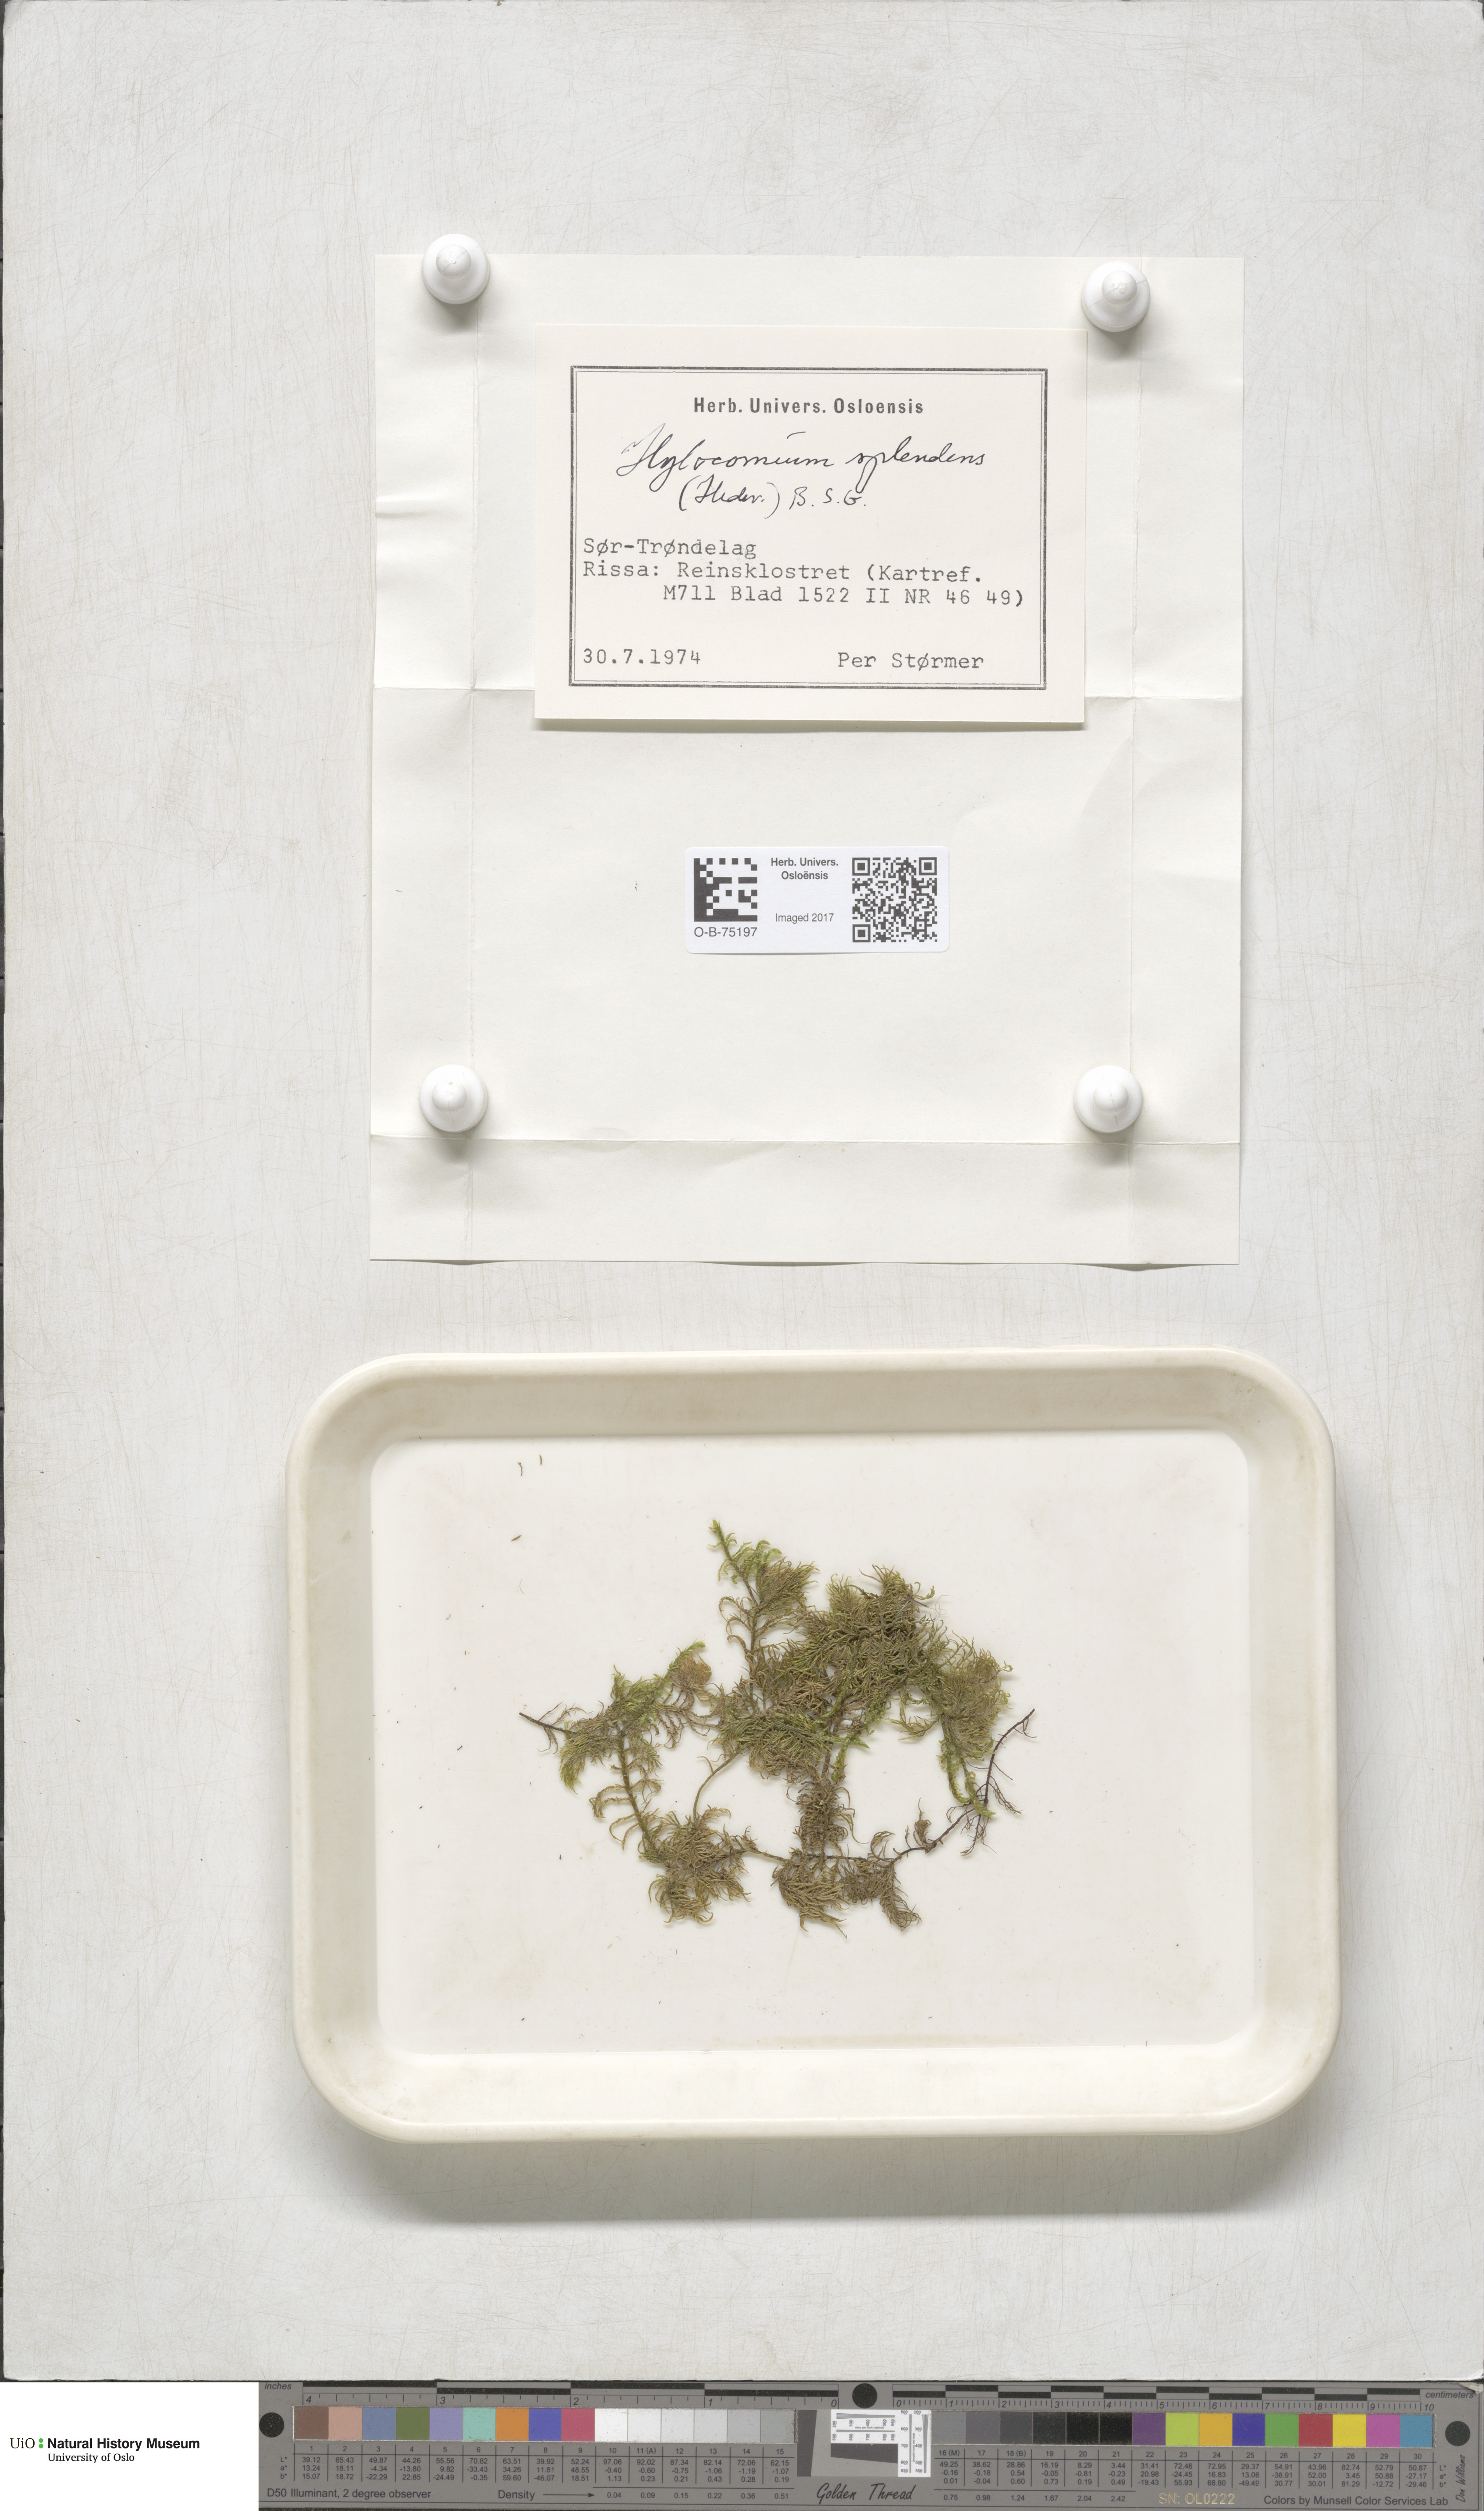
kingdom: Plantae
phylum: Bryophyta
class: Bryopsida
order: Hypnales
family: Hylocomiaceae
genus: Hylocomium
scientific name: Hylocomium splendens
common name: Stairstep moss
